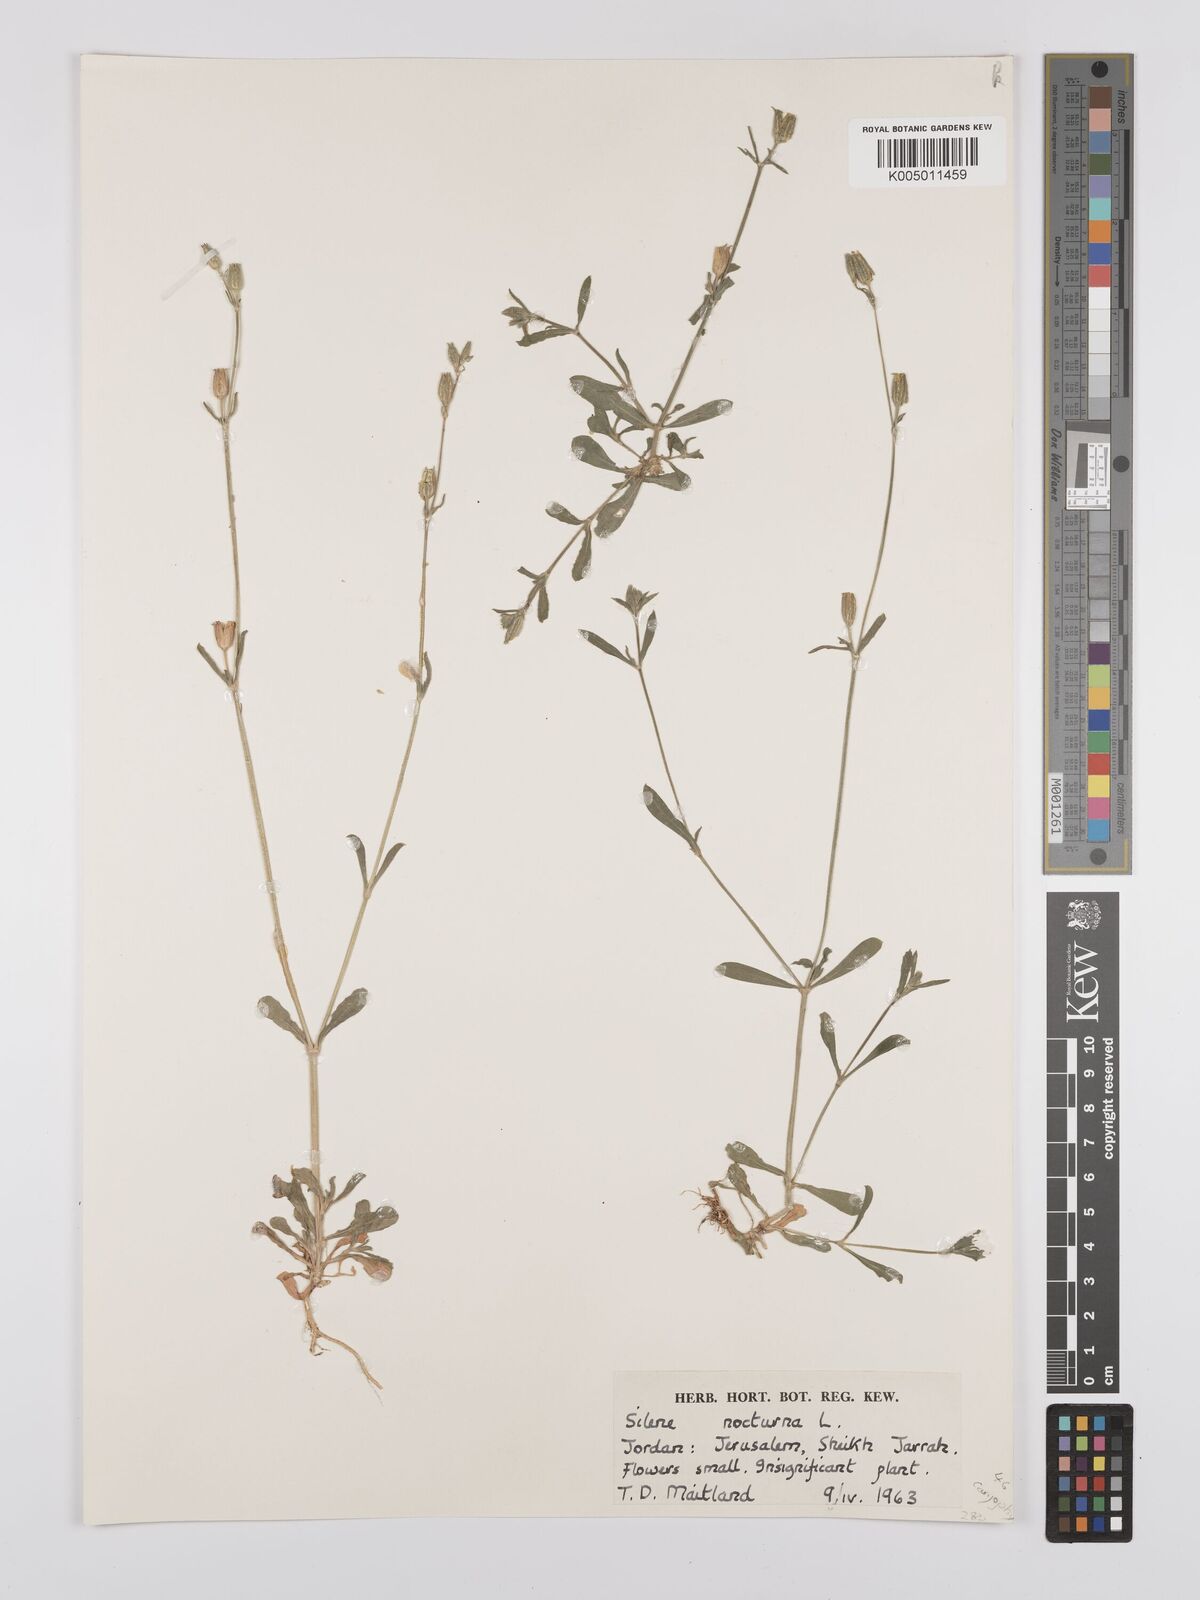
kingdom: Plantae
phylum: Tracheophyta
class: Magnoliopsida
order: Caryophyllales
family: Caryophyllaceae
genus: Silene
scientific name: Silene nocturna
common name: Mediterranean catchfly
